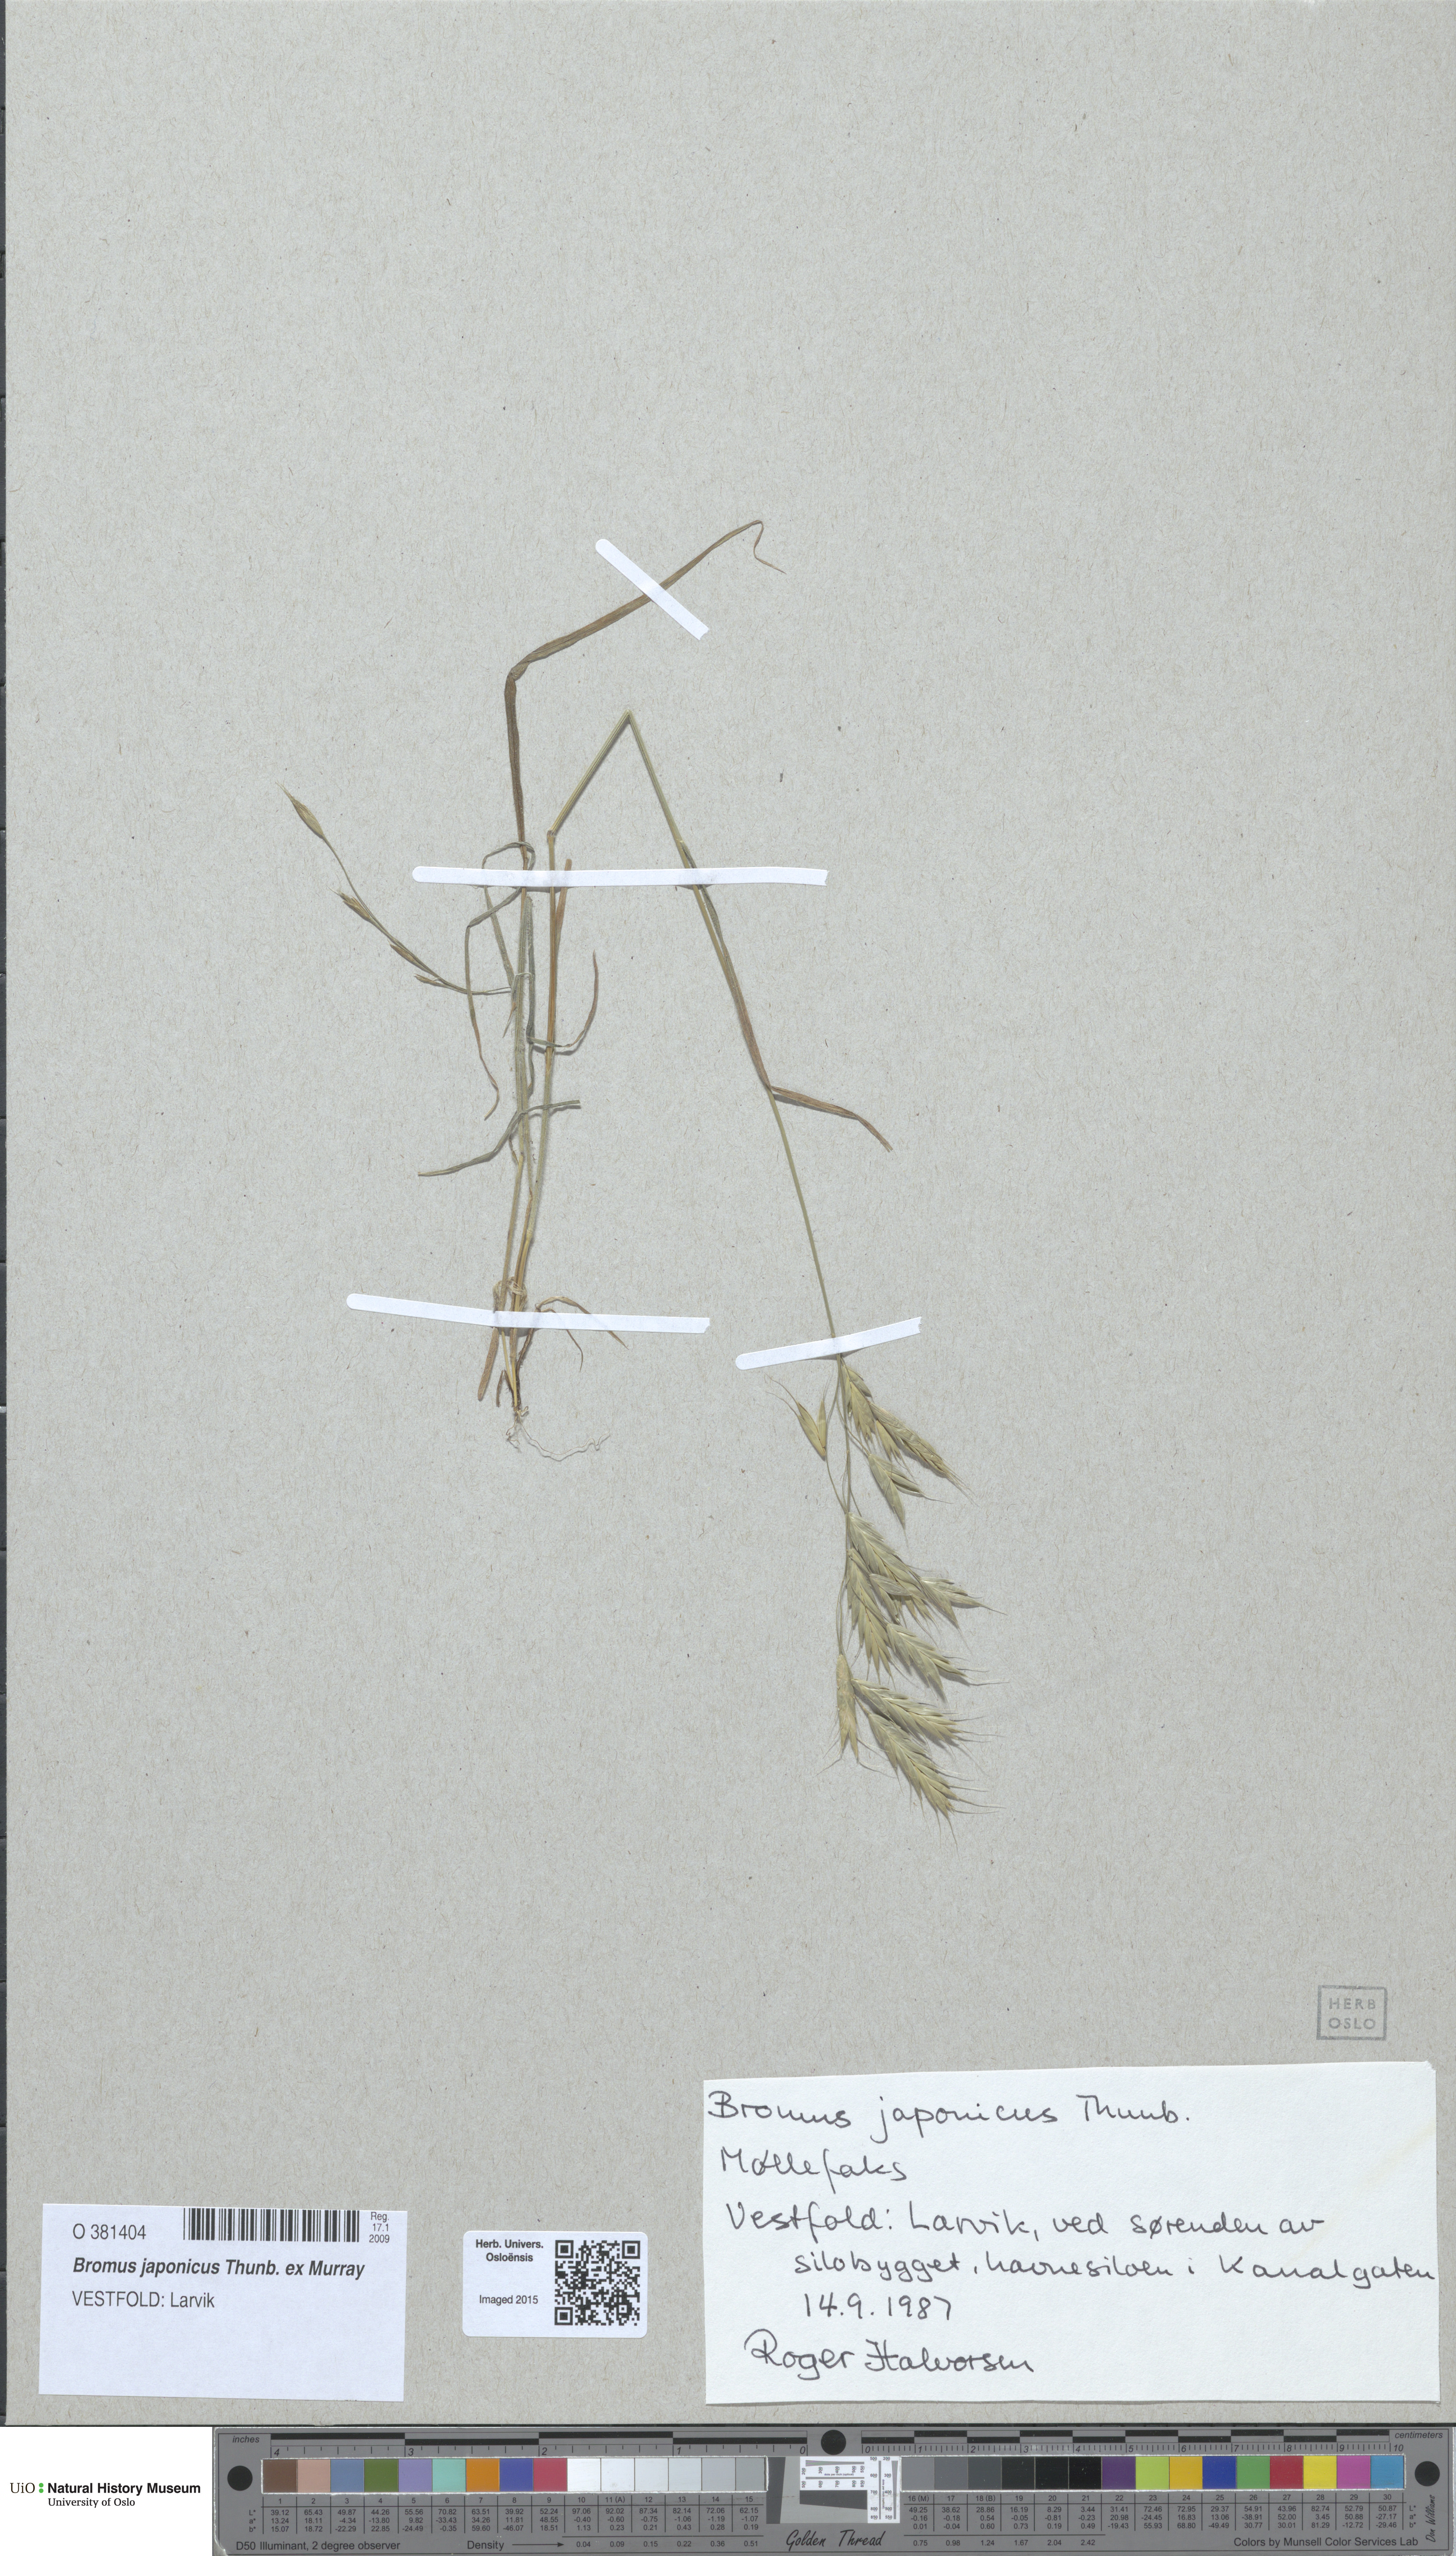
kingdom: Plantae
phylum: Tracheophyta
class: Liliopsida
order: Poales
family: Poaceae
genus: Bromus
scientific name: Bromus japonicus
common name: Japanese brome
